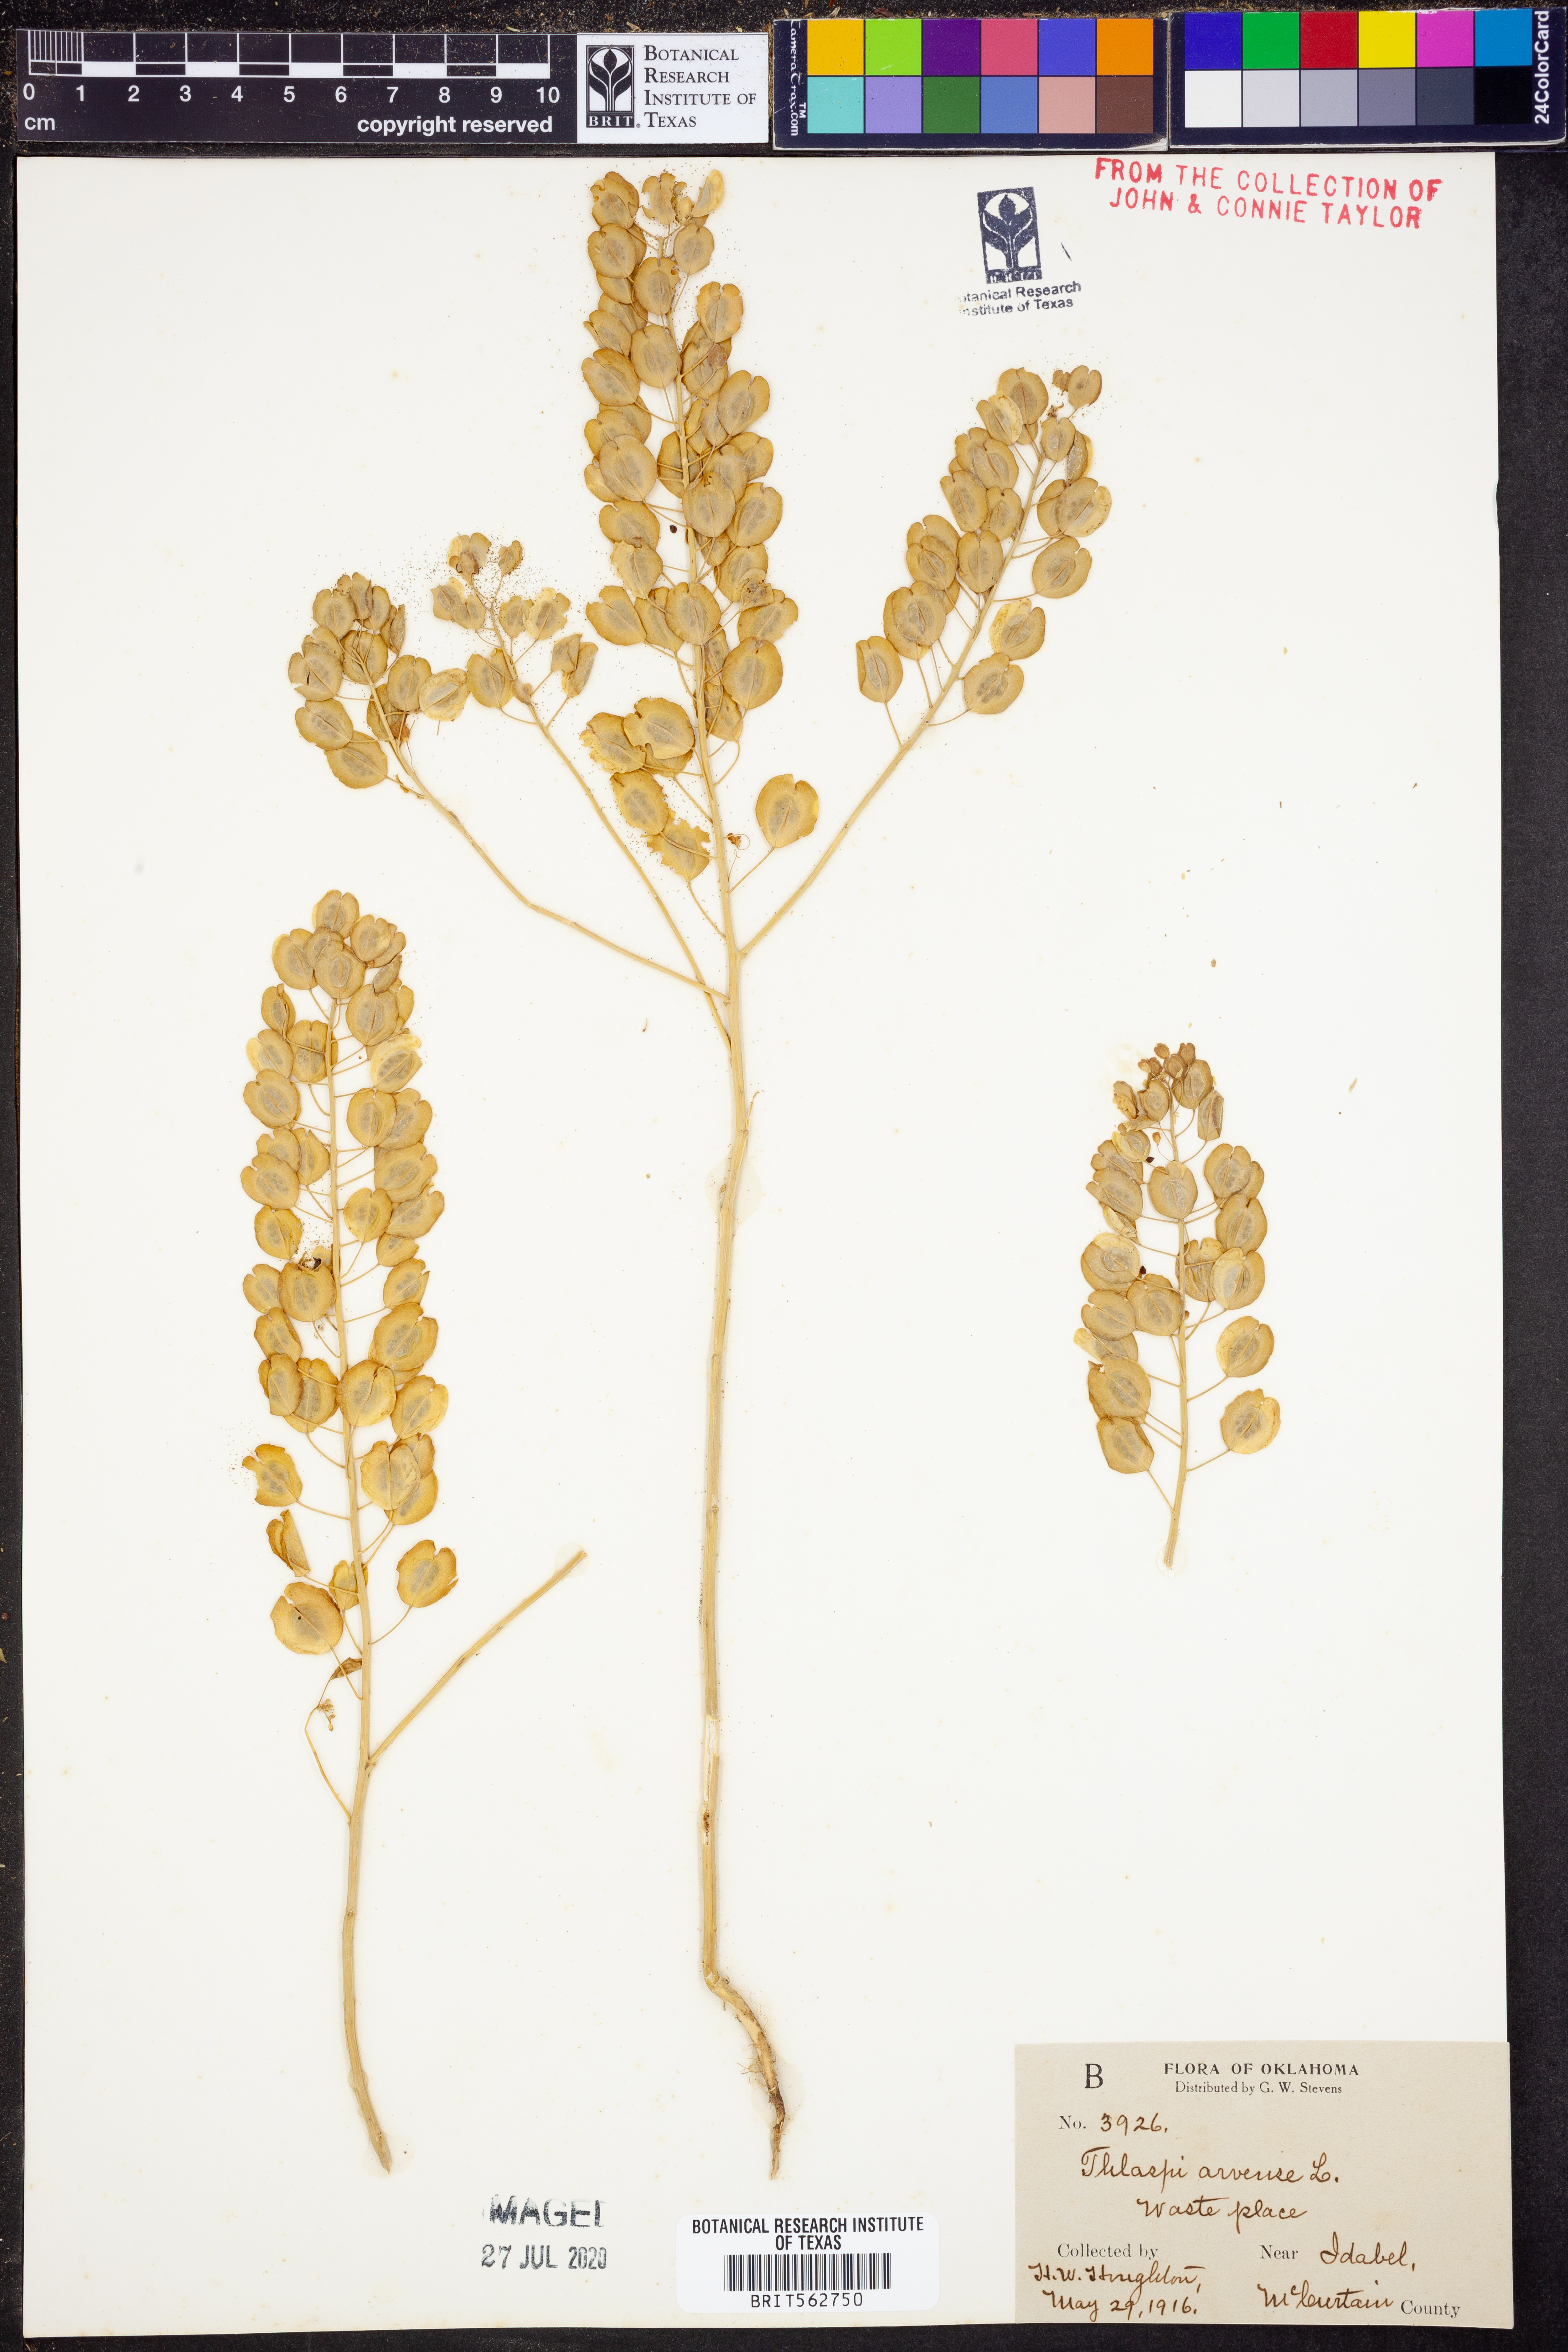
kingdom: Plantae
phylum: Tracheophyta
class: Magnoliopsida
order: Brassicales
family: Brassicaceae
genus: Thlaspi
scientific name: Thlaspi arvense
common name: Field pennycress
